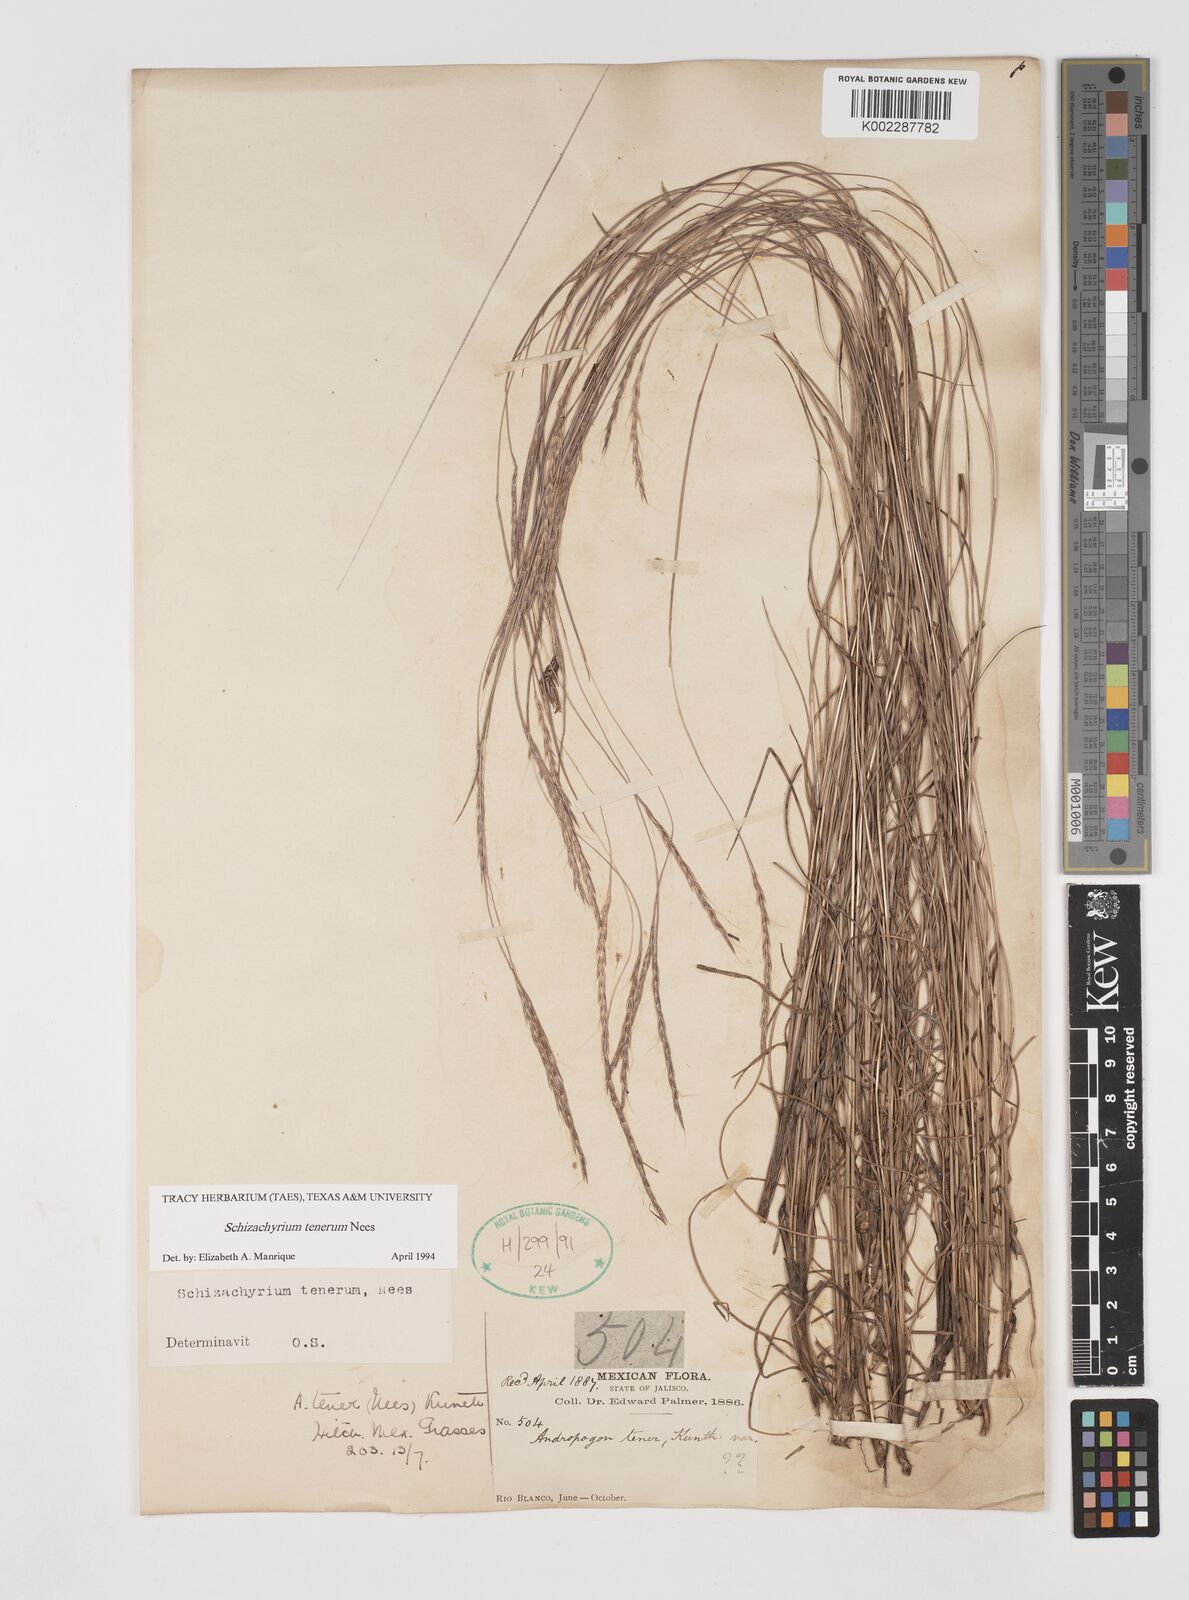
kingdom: Plantae
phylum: Tracheophyta
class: Liliopsida
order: Poales
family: Poaceae
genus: Andropogon
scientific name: Andropogon tener
